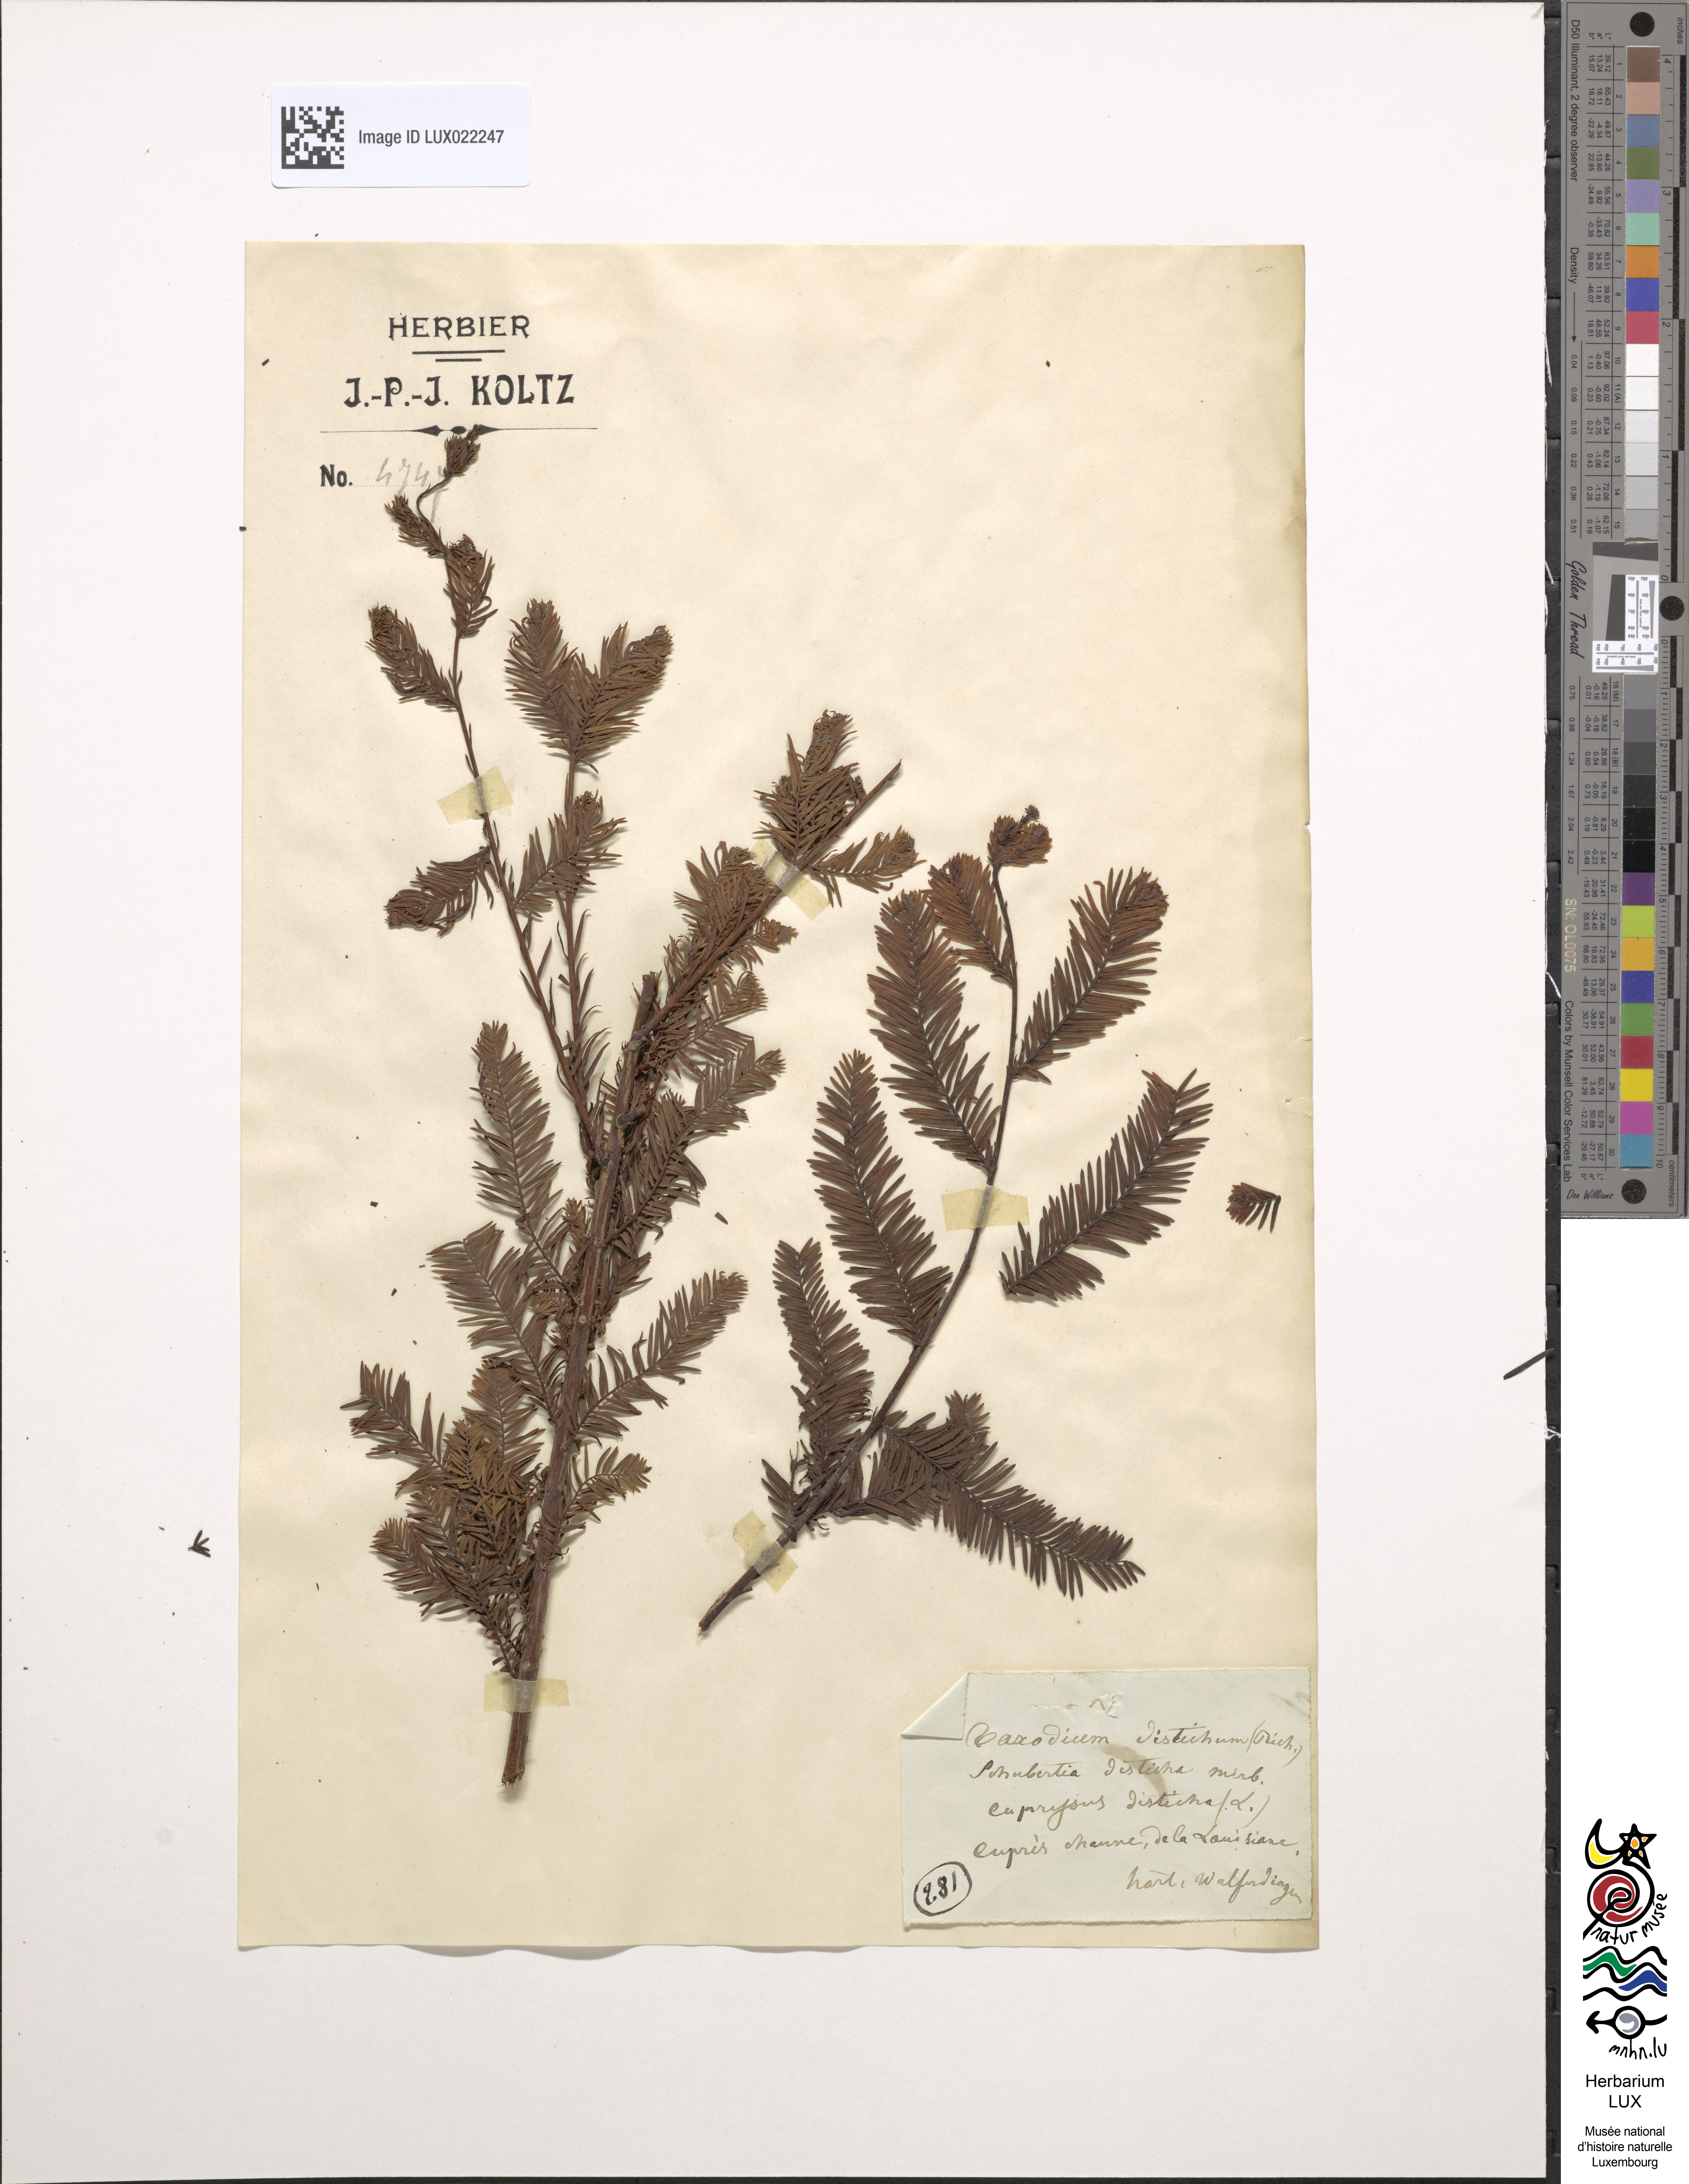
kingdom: Plantae
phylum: Tracheophyta
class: Pinopsida
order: Pinales
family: Cupressaceae
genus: Taxodium
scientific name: Taxodium distichum
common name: Bald cypress
